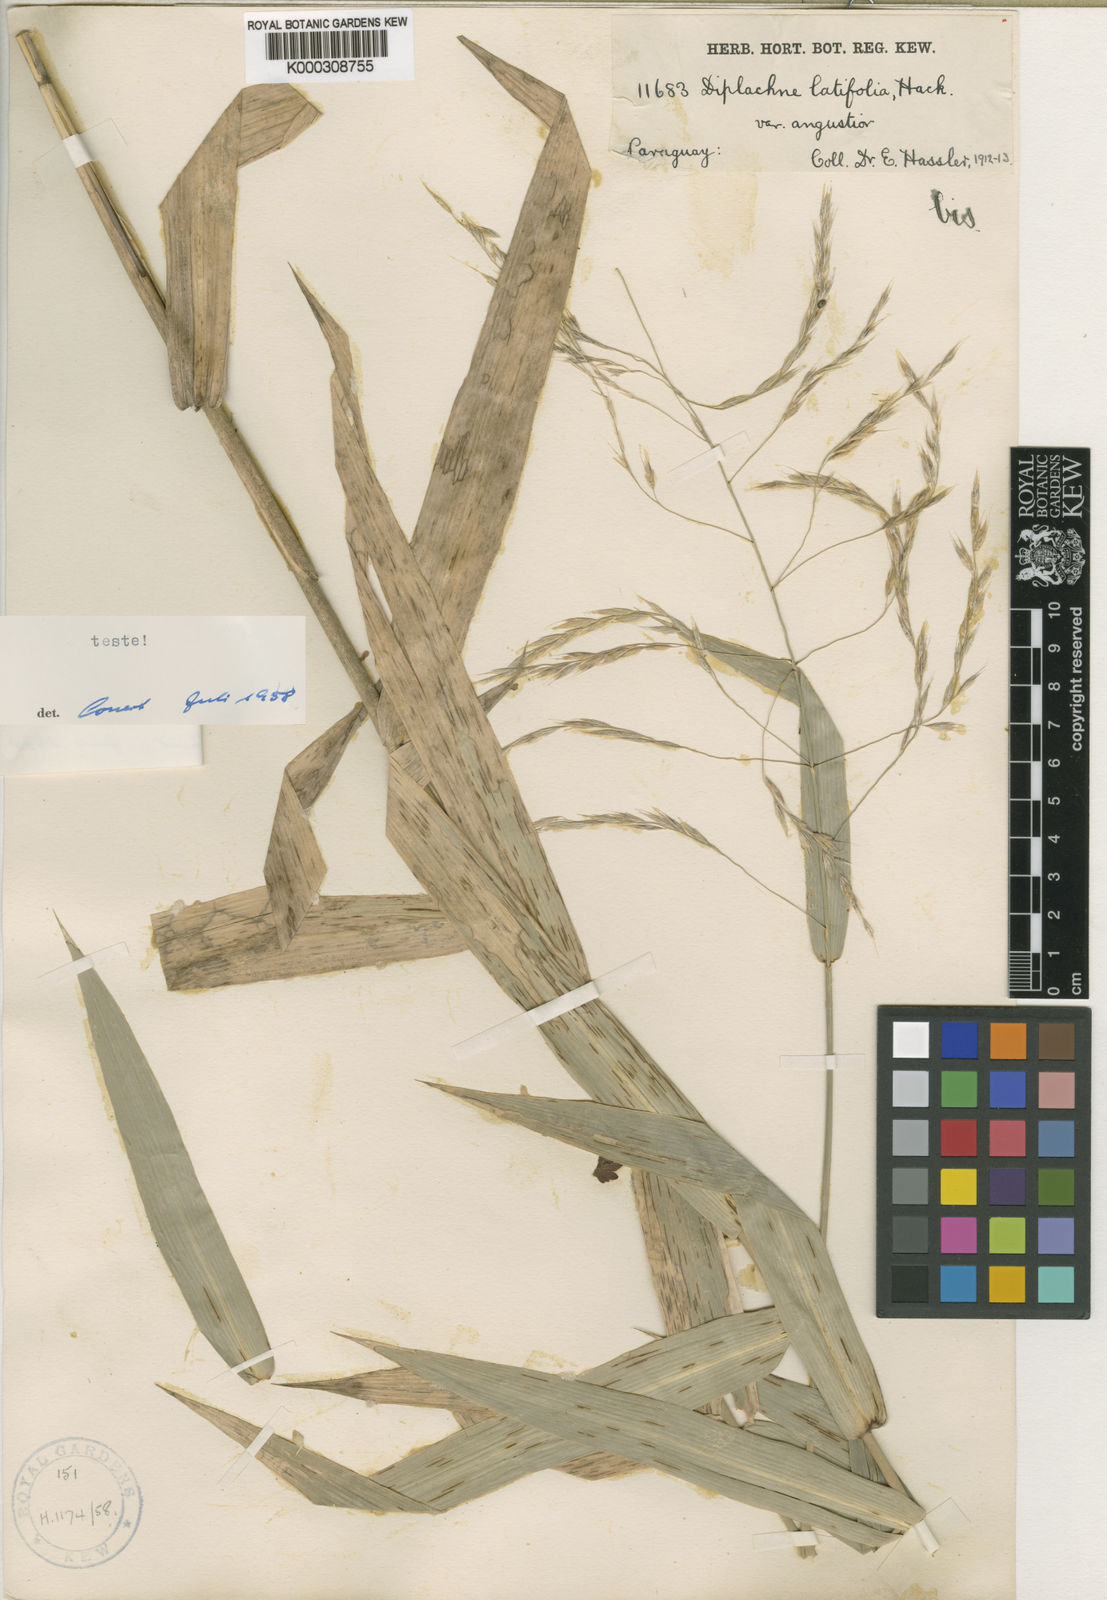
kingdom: Plantae
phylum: Tracheophyta
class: Liliopsida
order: Poales
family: Poaceae
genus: Gouinia
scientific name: Gouinia latifolia
